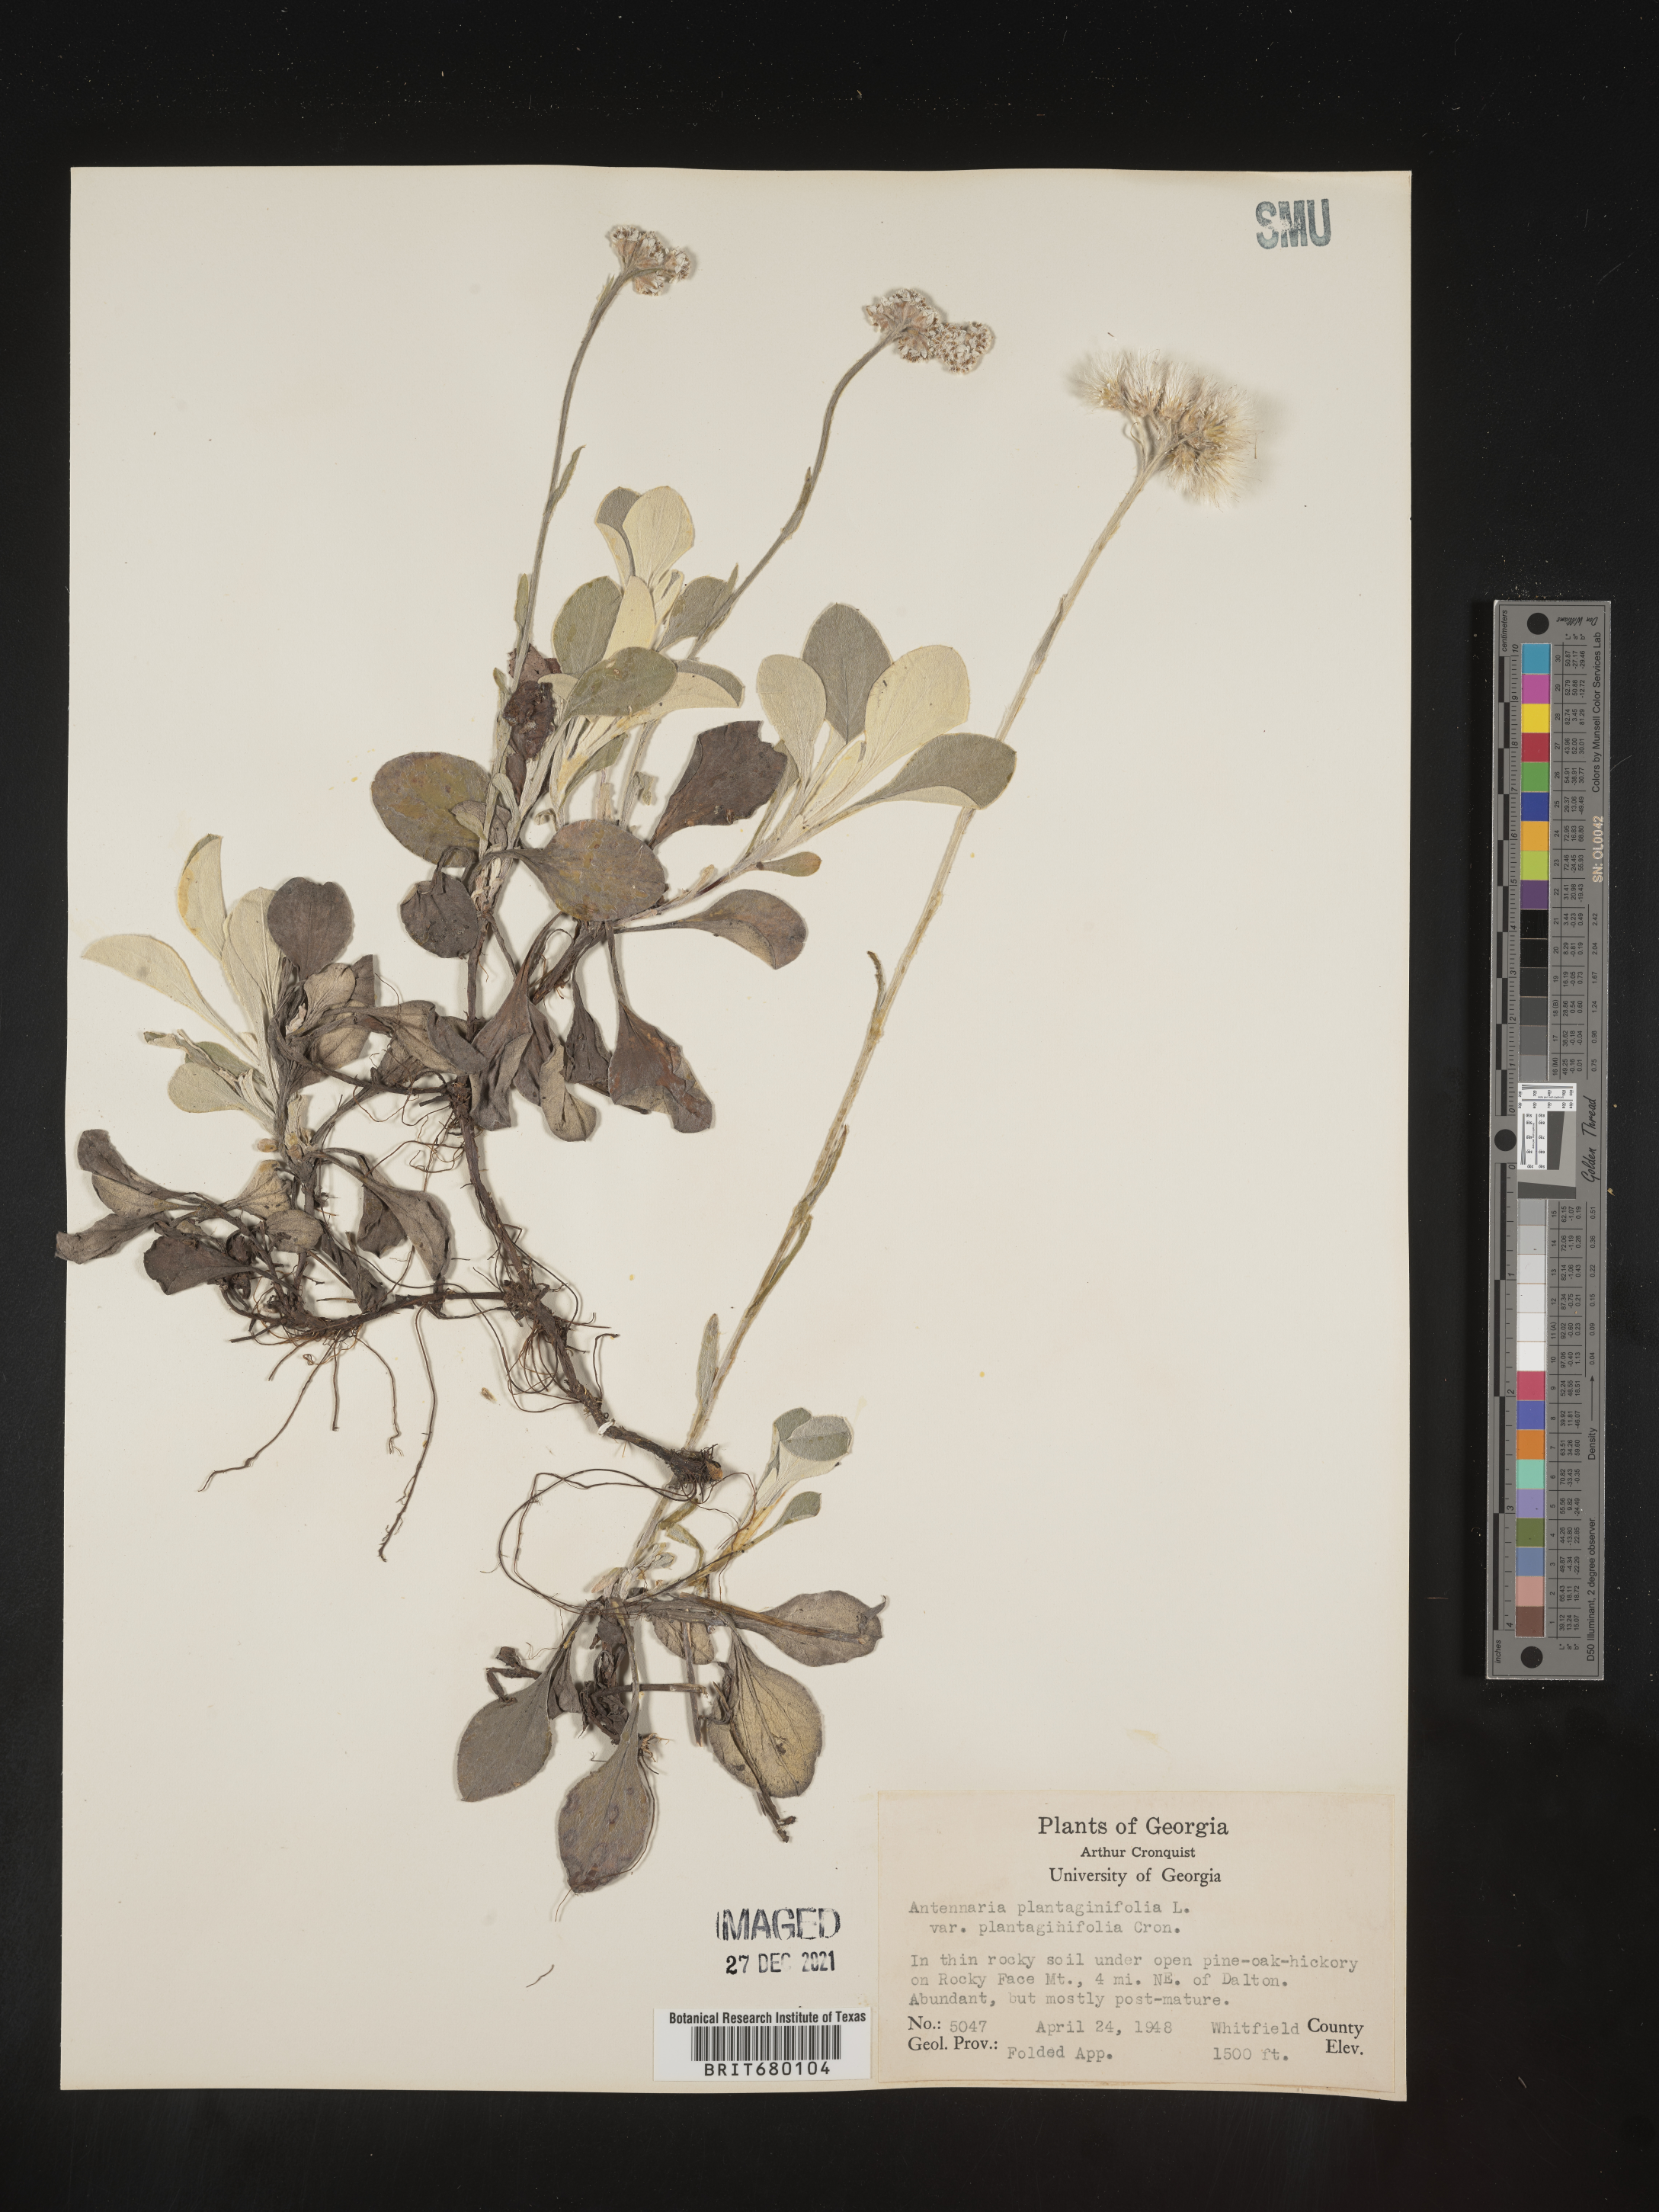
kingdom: Plantae
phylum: Tracheophyta
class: Magnoliopsida
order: Asterales
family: Asteraceae
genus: Antennaria
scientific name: Antennaria plantaginifolia
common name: Plantain-leaved pussytoes
